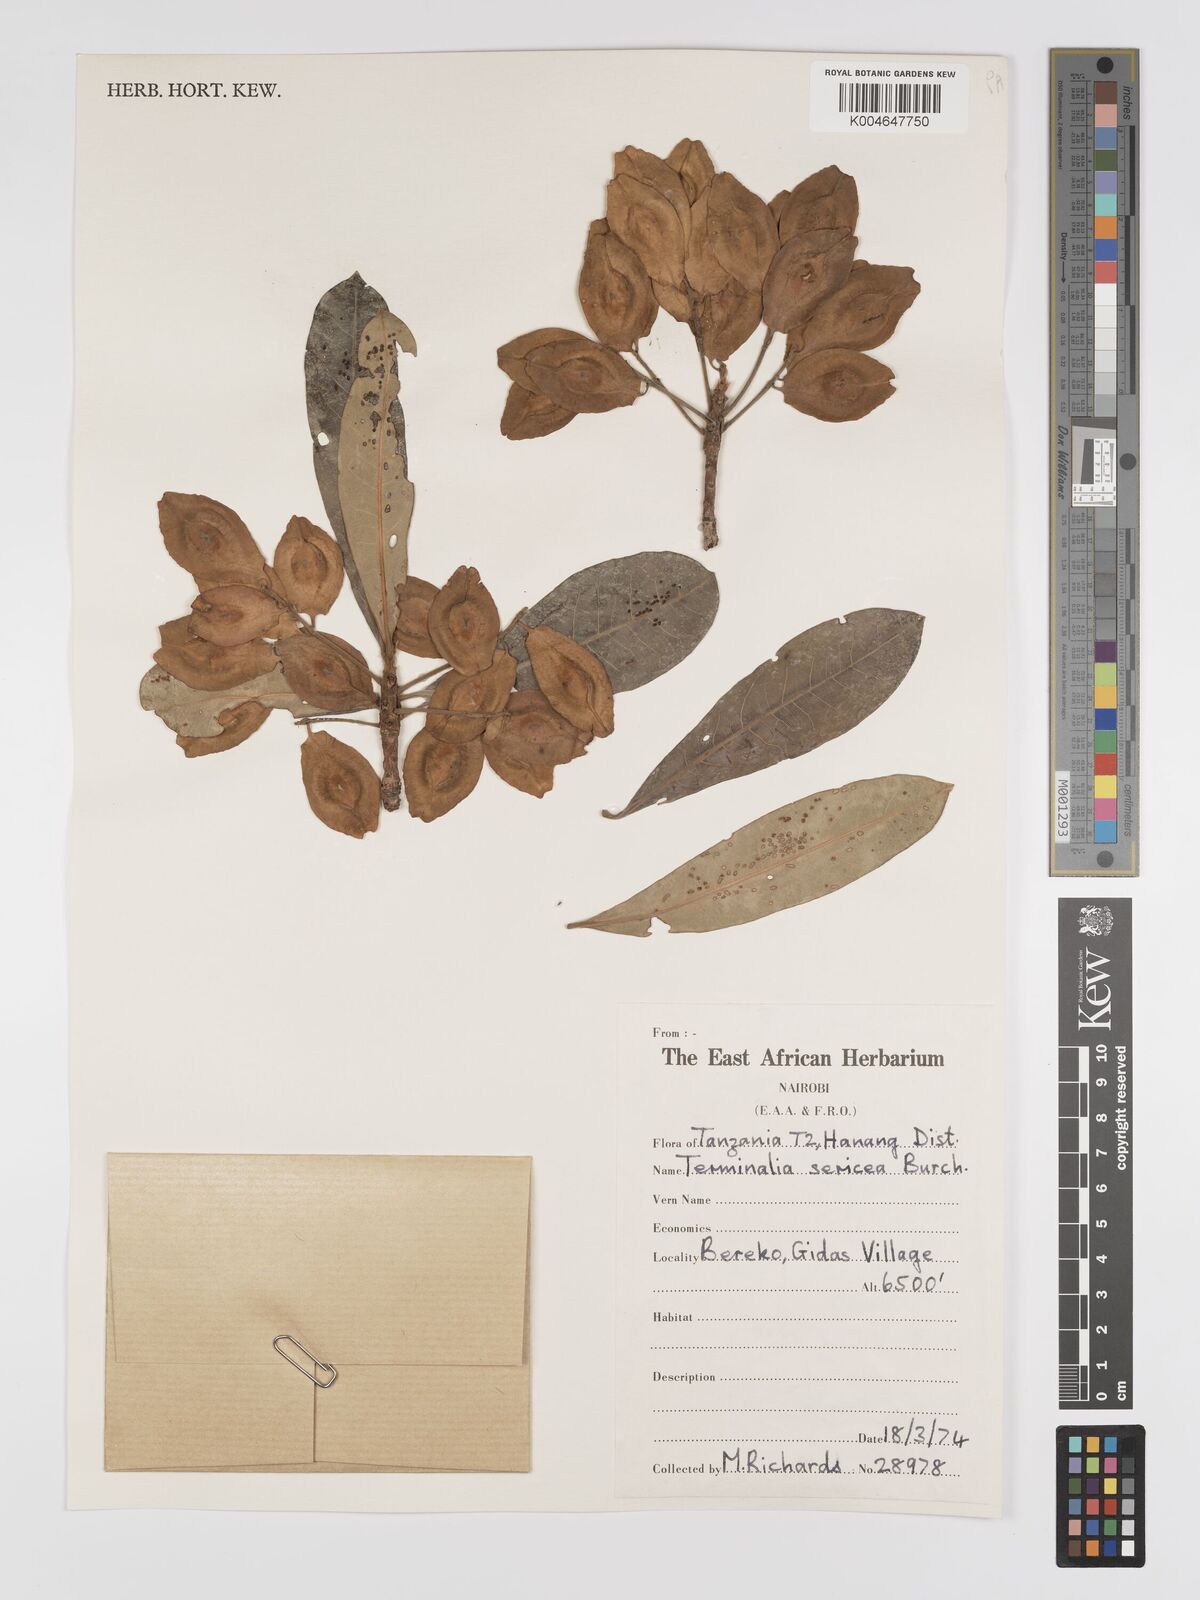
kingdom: Plantae
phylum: Tracheophyta
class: Magnoliopsida
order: Myrtales
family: Combretaceae
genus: Terminalia
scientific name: Terminalia
